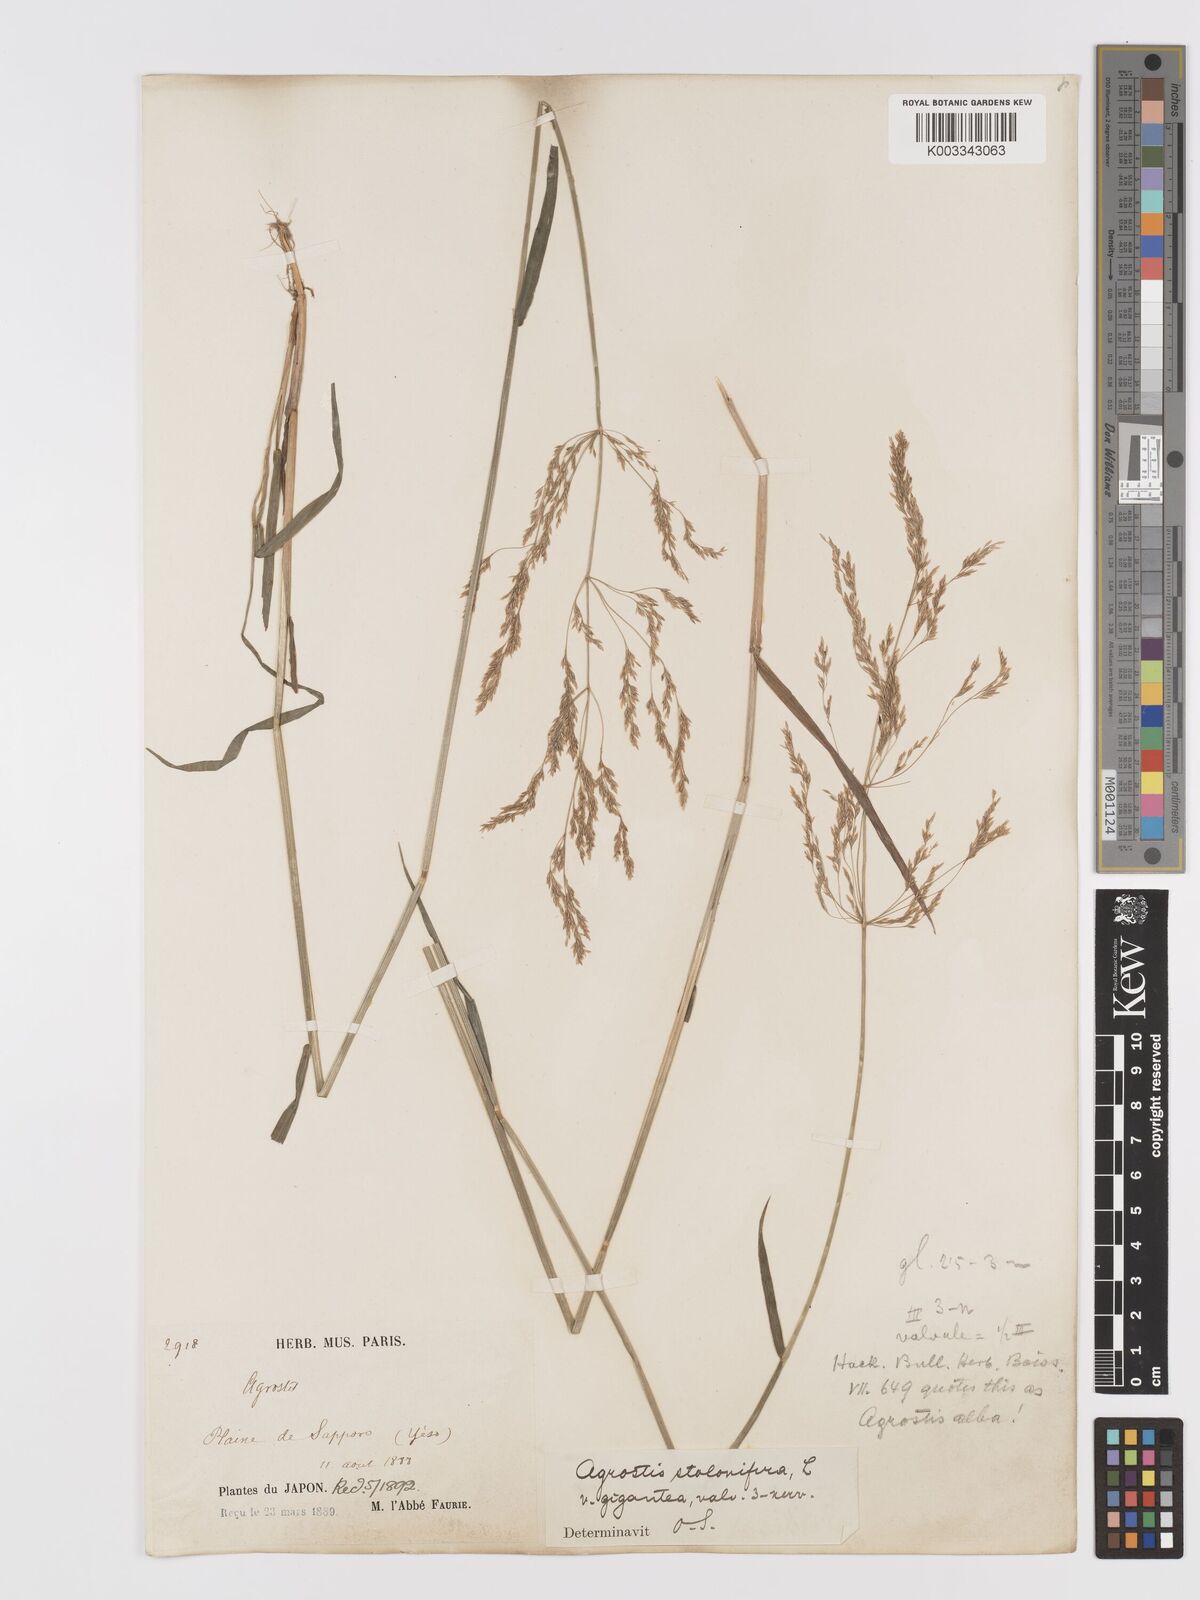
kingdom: Plantae
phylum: Tracheophyta
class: Liliopsida
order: Poales
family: Poaceae
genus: Agrostis
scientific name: Agrostis gigantea
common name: Black bent
